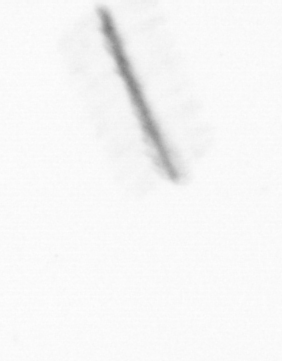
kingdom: Chromista
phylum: Ochrophyta
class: Bacillariophyceae
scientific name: Bacillariophyceae
